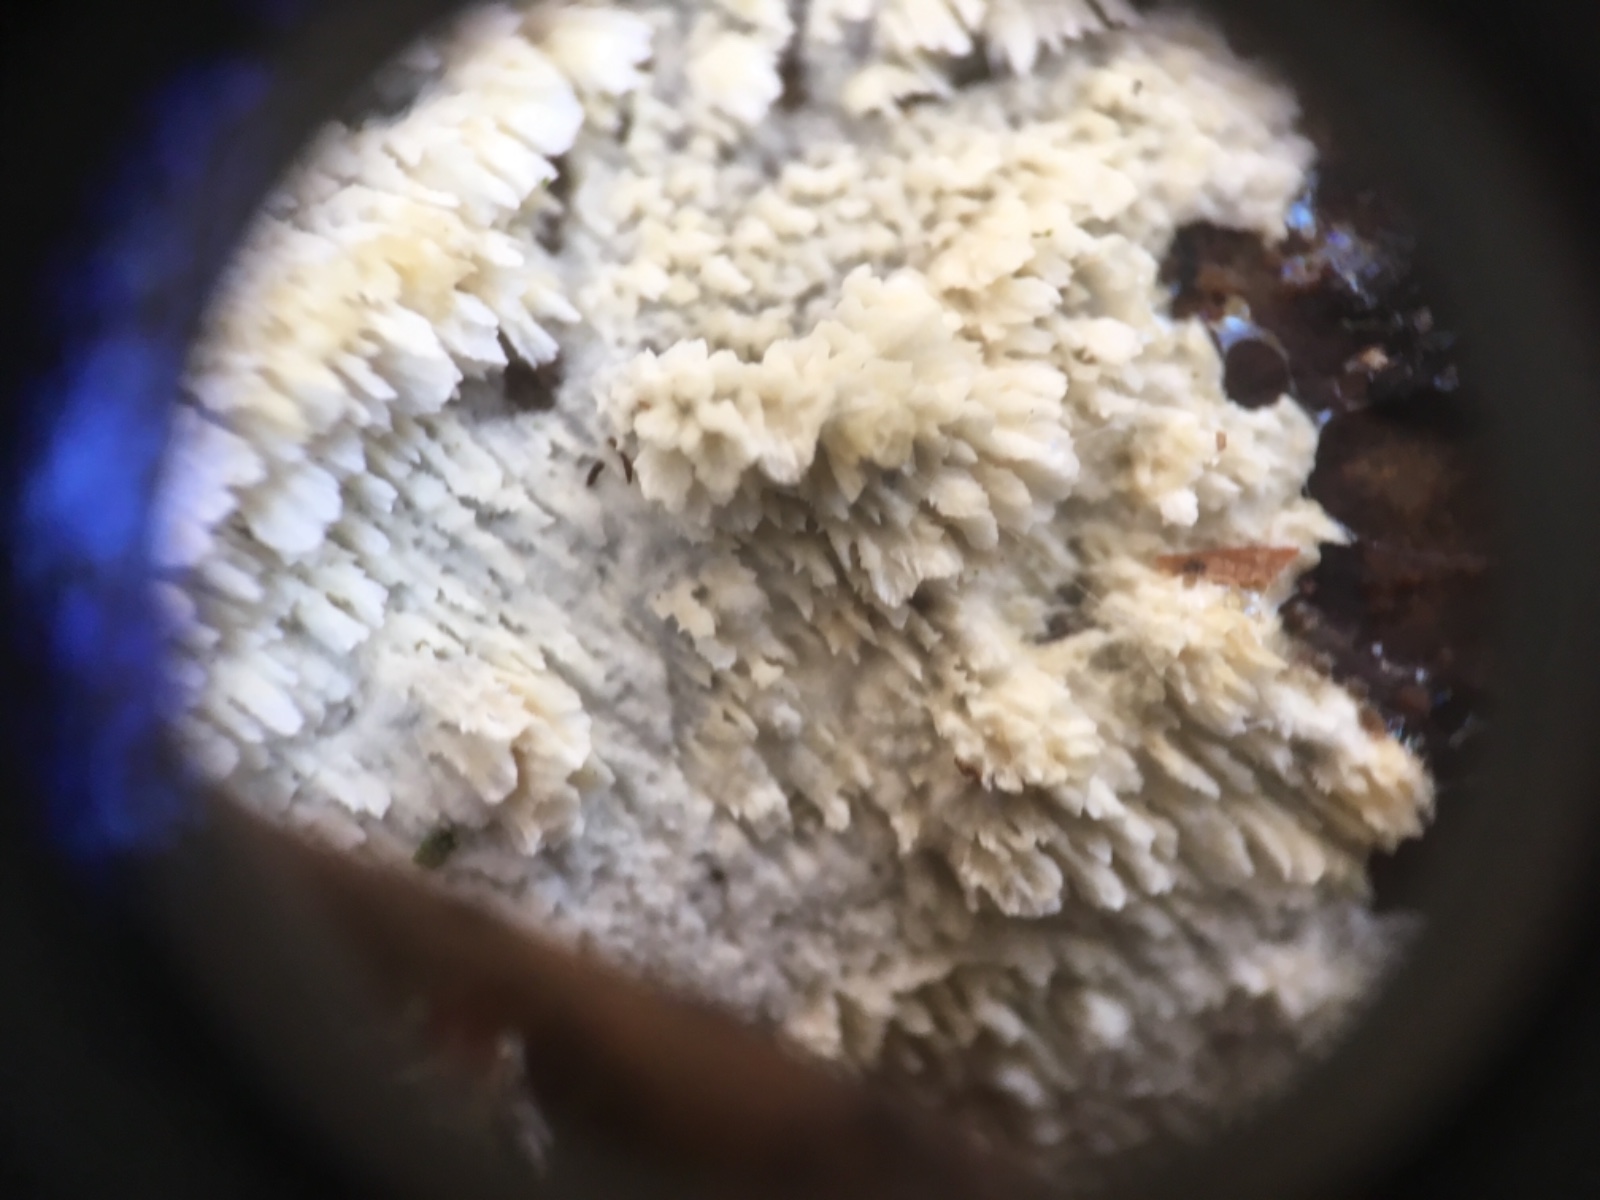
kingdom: Fungi
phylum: Basidiomycota
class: Agaricomycetes
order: Hymenochaetales
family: Schizoporaceae
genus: Schizopora
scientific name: Schizopora paradoxa
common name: hvid tandsvamp
